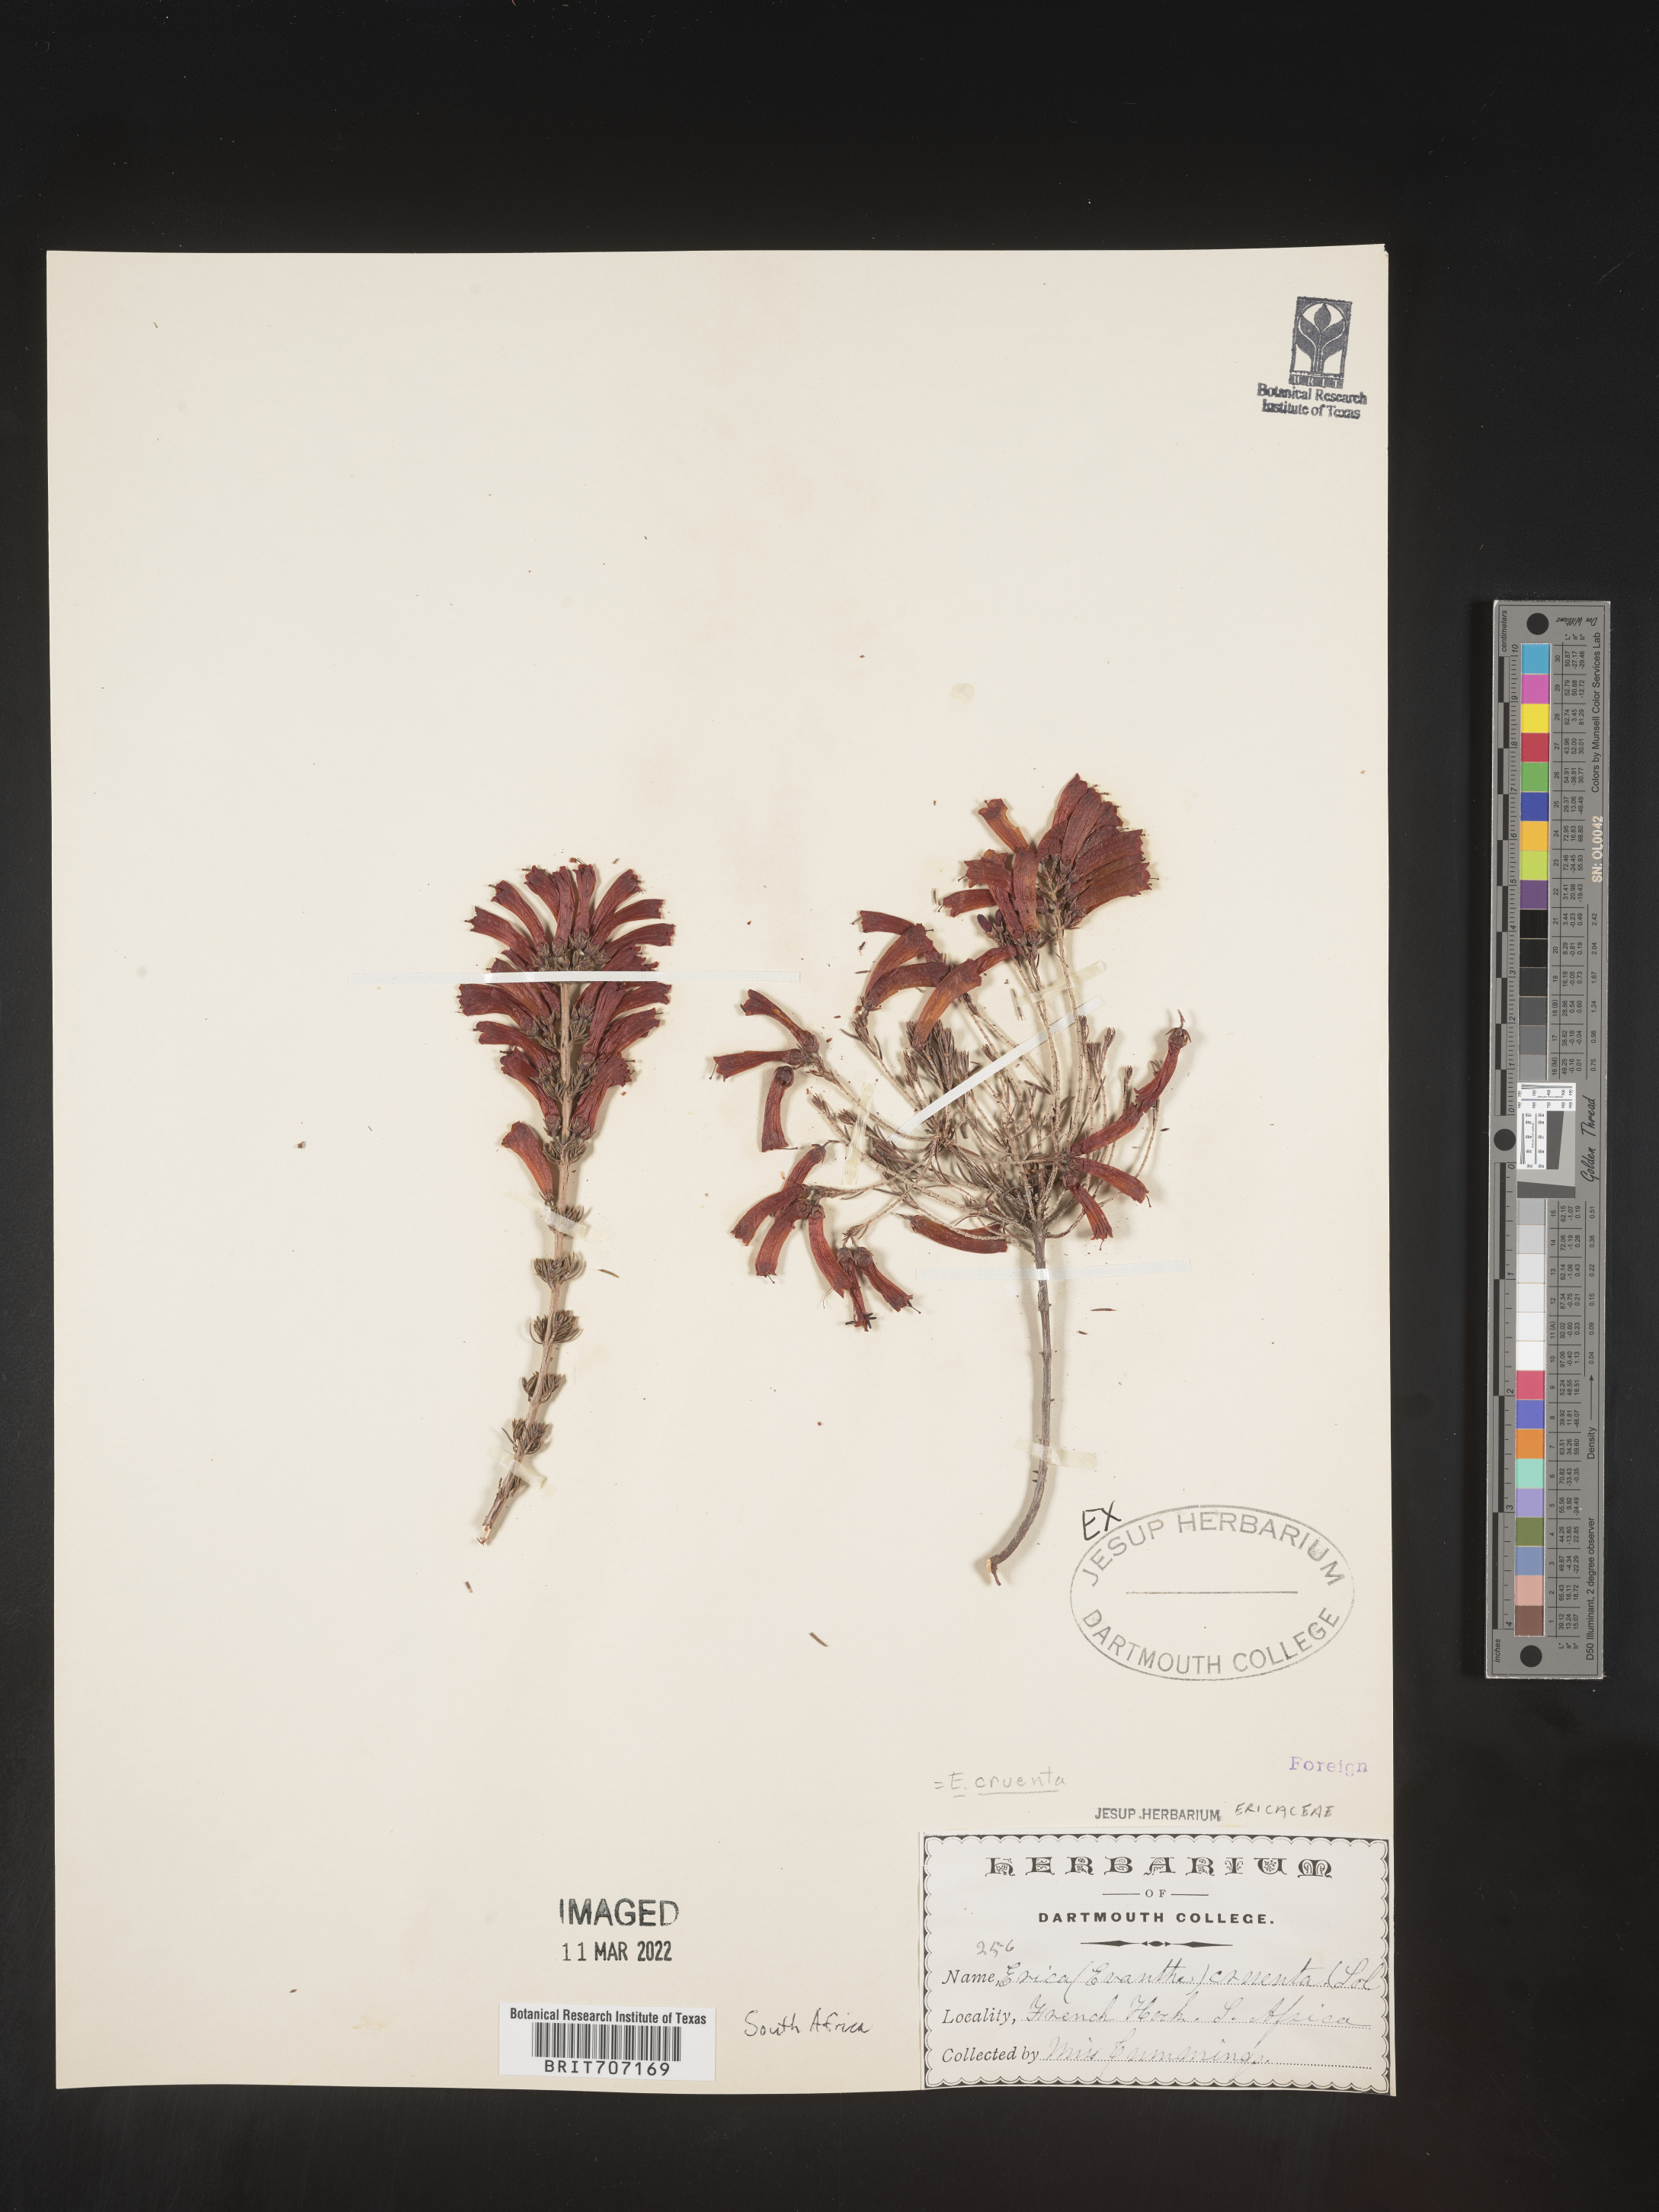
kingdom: Plantae
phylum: Tracheophyta
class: Magnoliopsida
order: Ericales
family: Ericaceae
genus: Erica
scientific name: Erica
